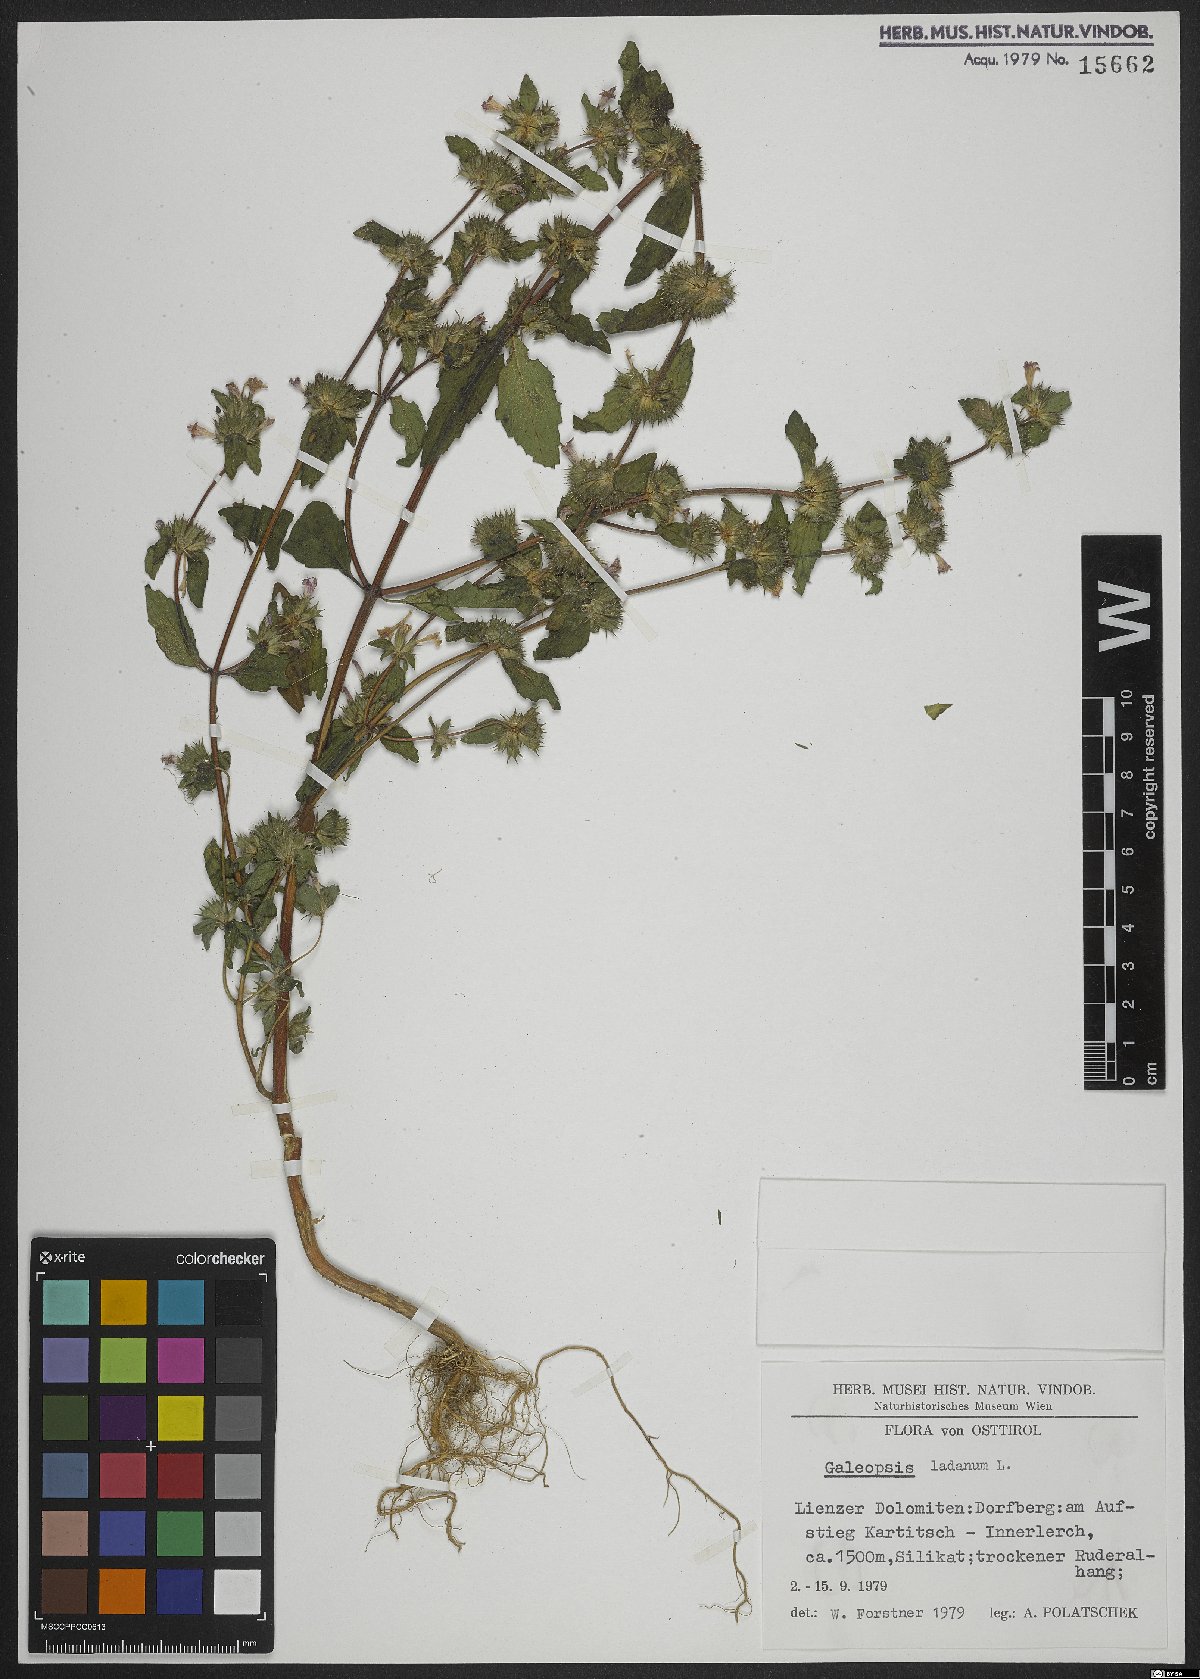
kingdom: Plantae
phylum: Tracheophyta
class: Magnoliopsida
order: Lamiales
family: Lamiaceae
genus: Galeopsis
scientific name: Galeopsis ladanum
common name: Broad-leaved hemp-nettle
